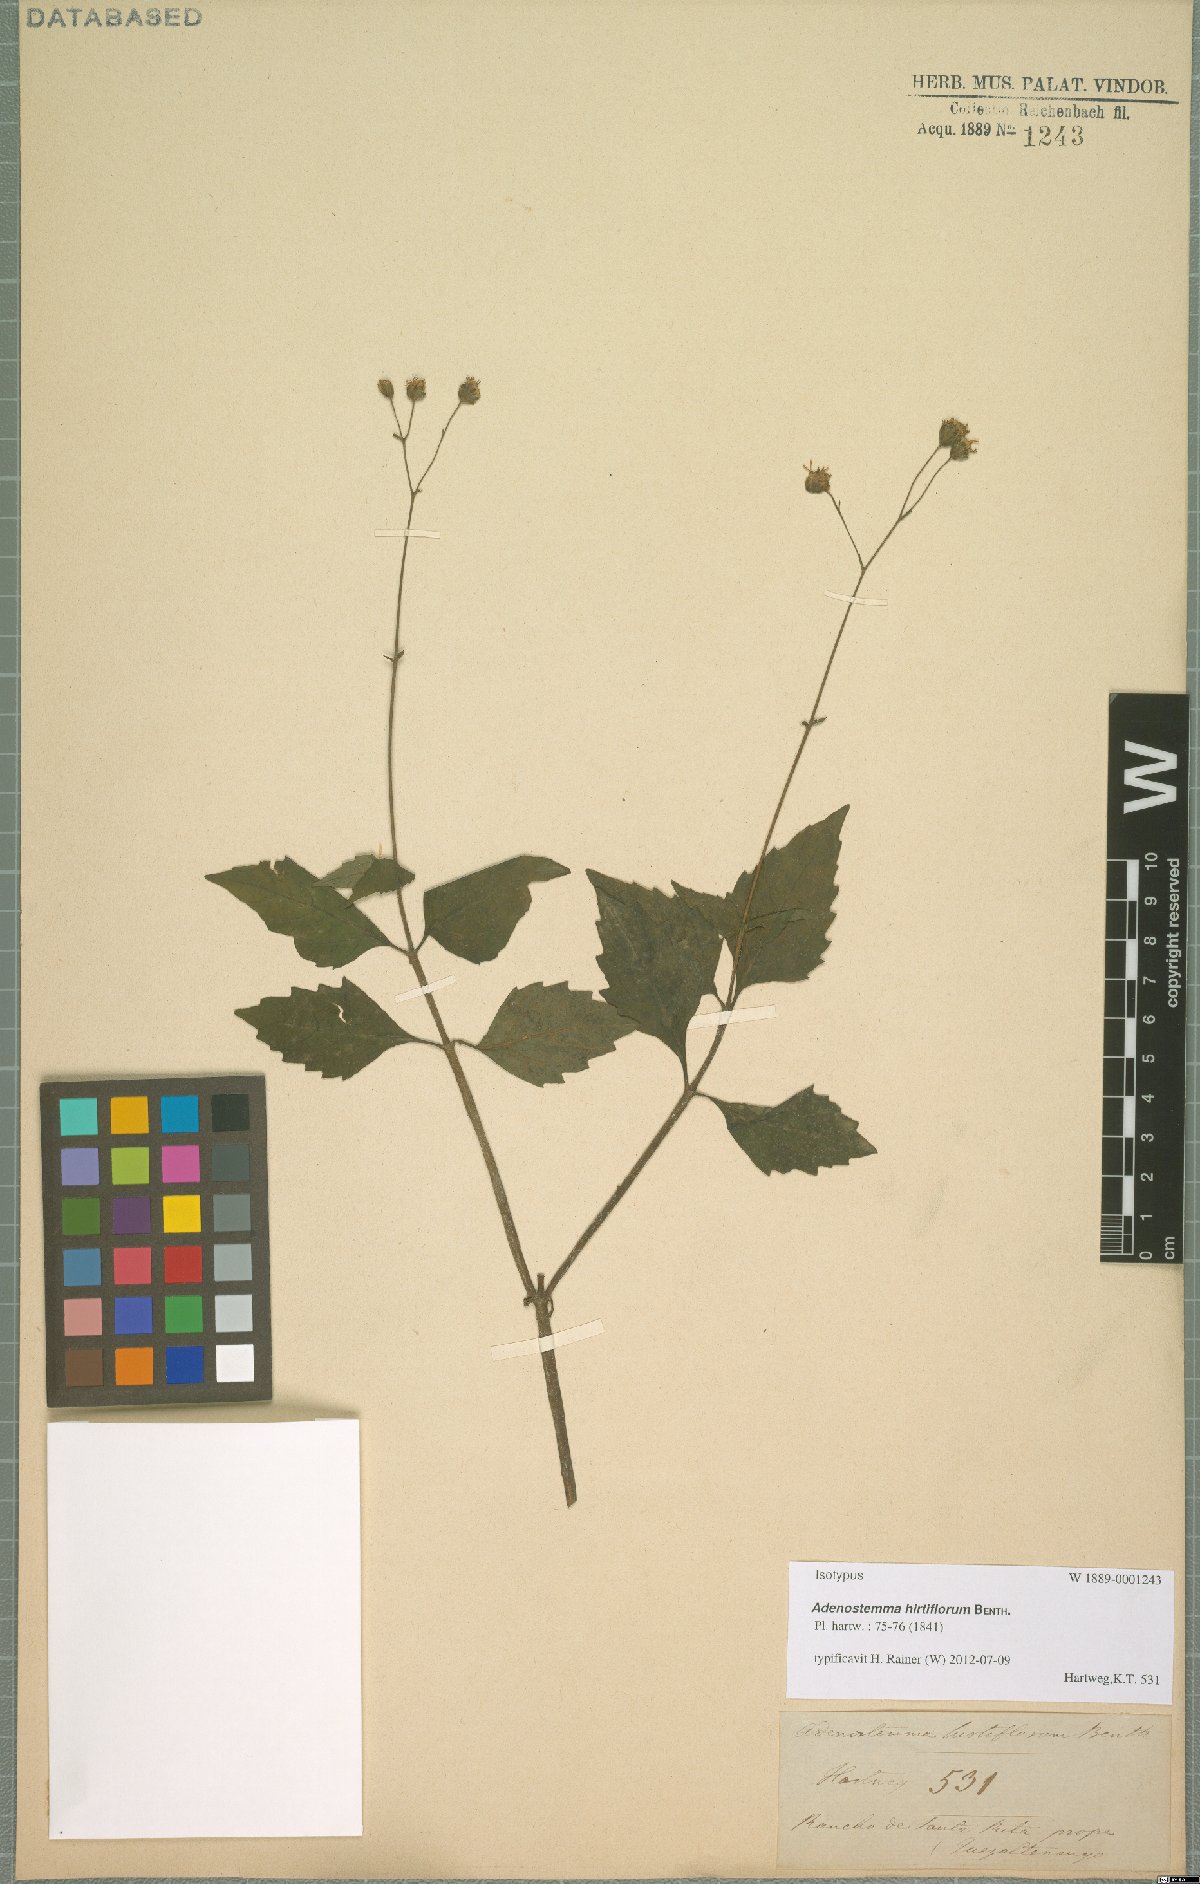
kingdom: Plantae
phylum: Tracheophyta
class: Magnoliopsida
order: Asterales
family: Asteraceae
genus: Adenostemma
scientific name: Adenostemma hirtiflorum
